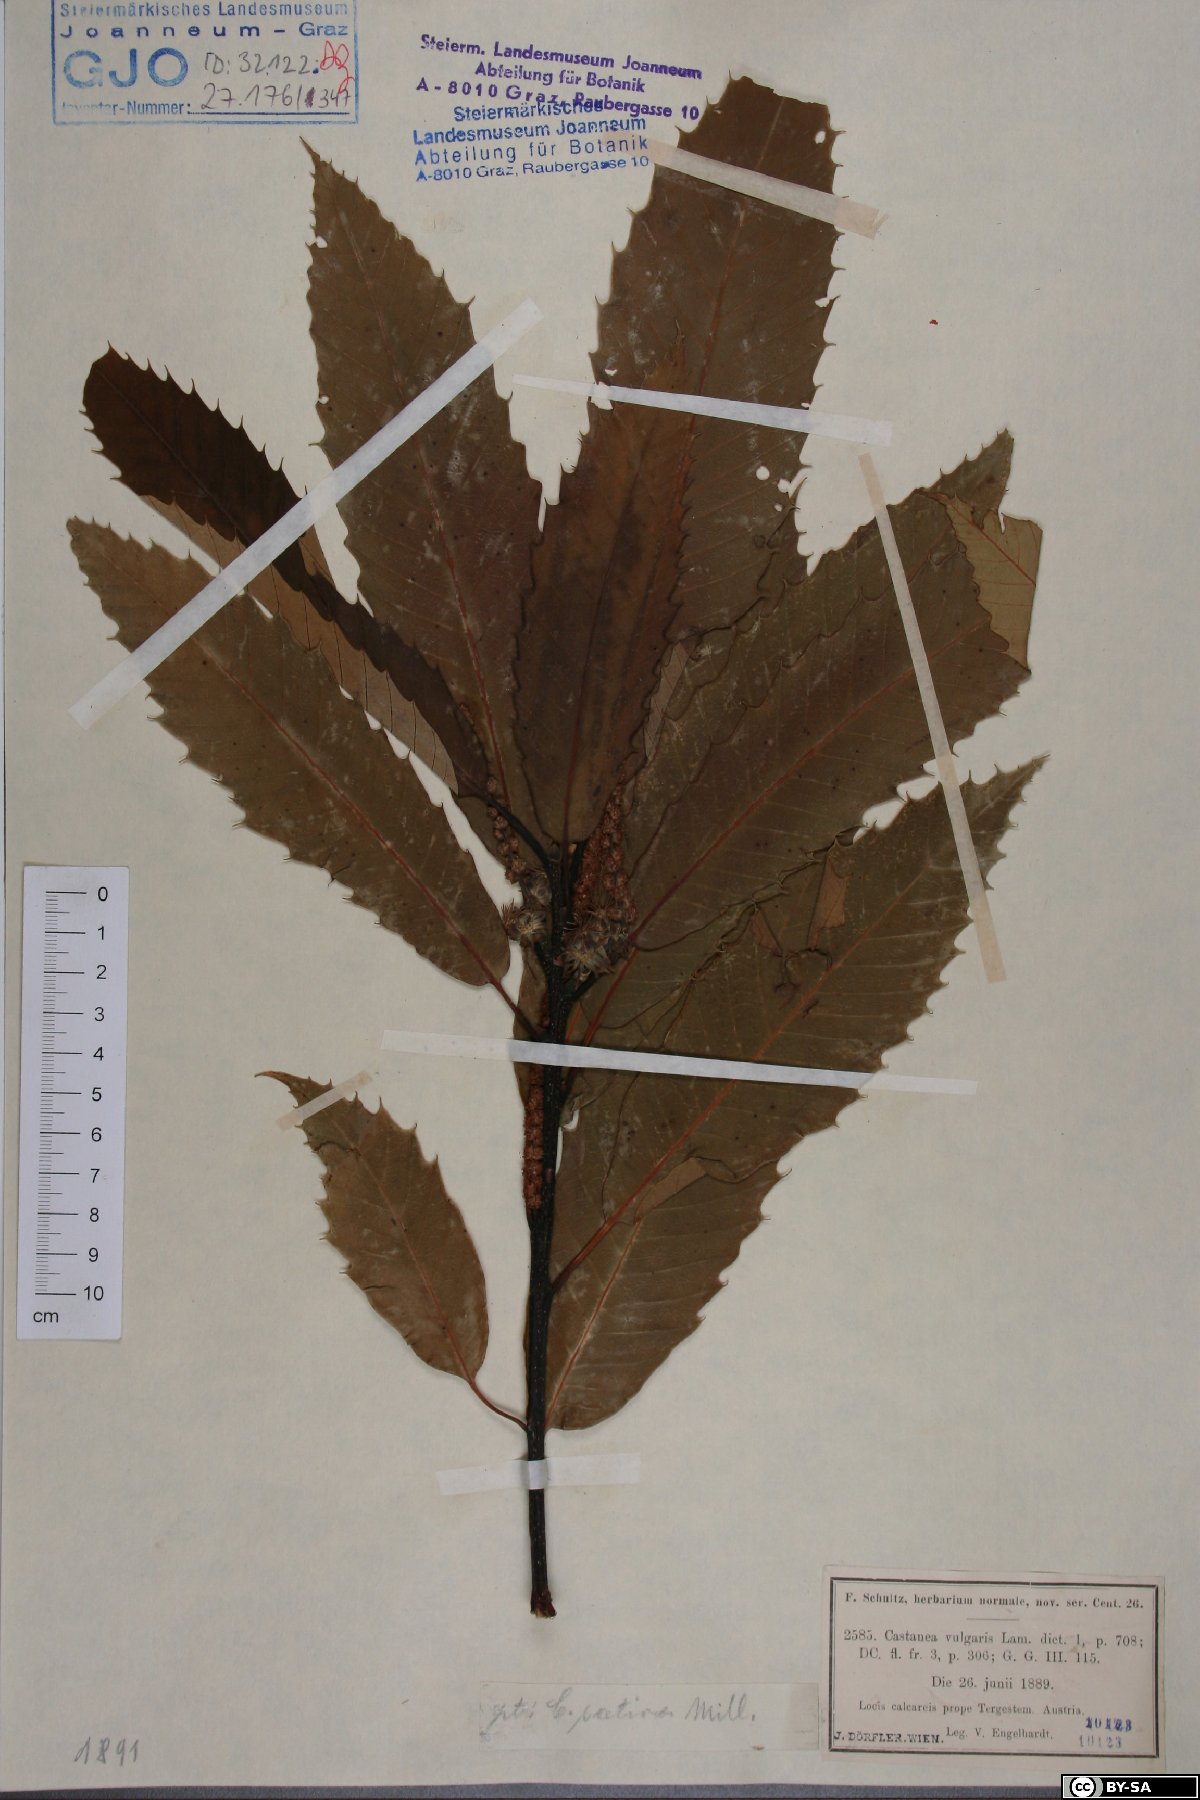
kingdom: Plantae
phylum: Tracheophyta
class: Magnoliopsida
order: Fagales
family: Fagaceae
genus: Castanea
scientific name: Castanea sativa
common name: Sweet chestnut
